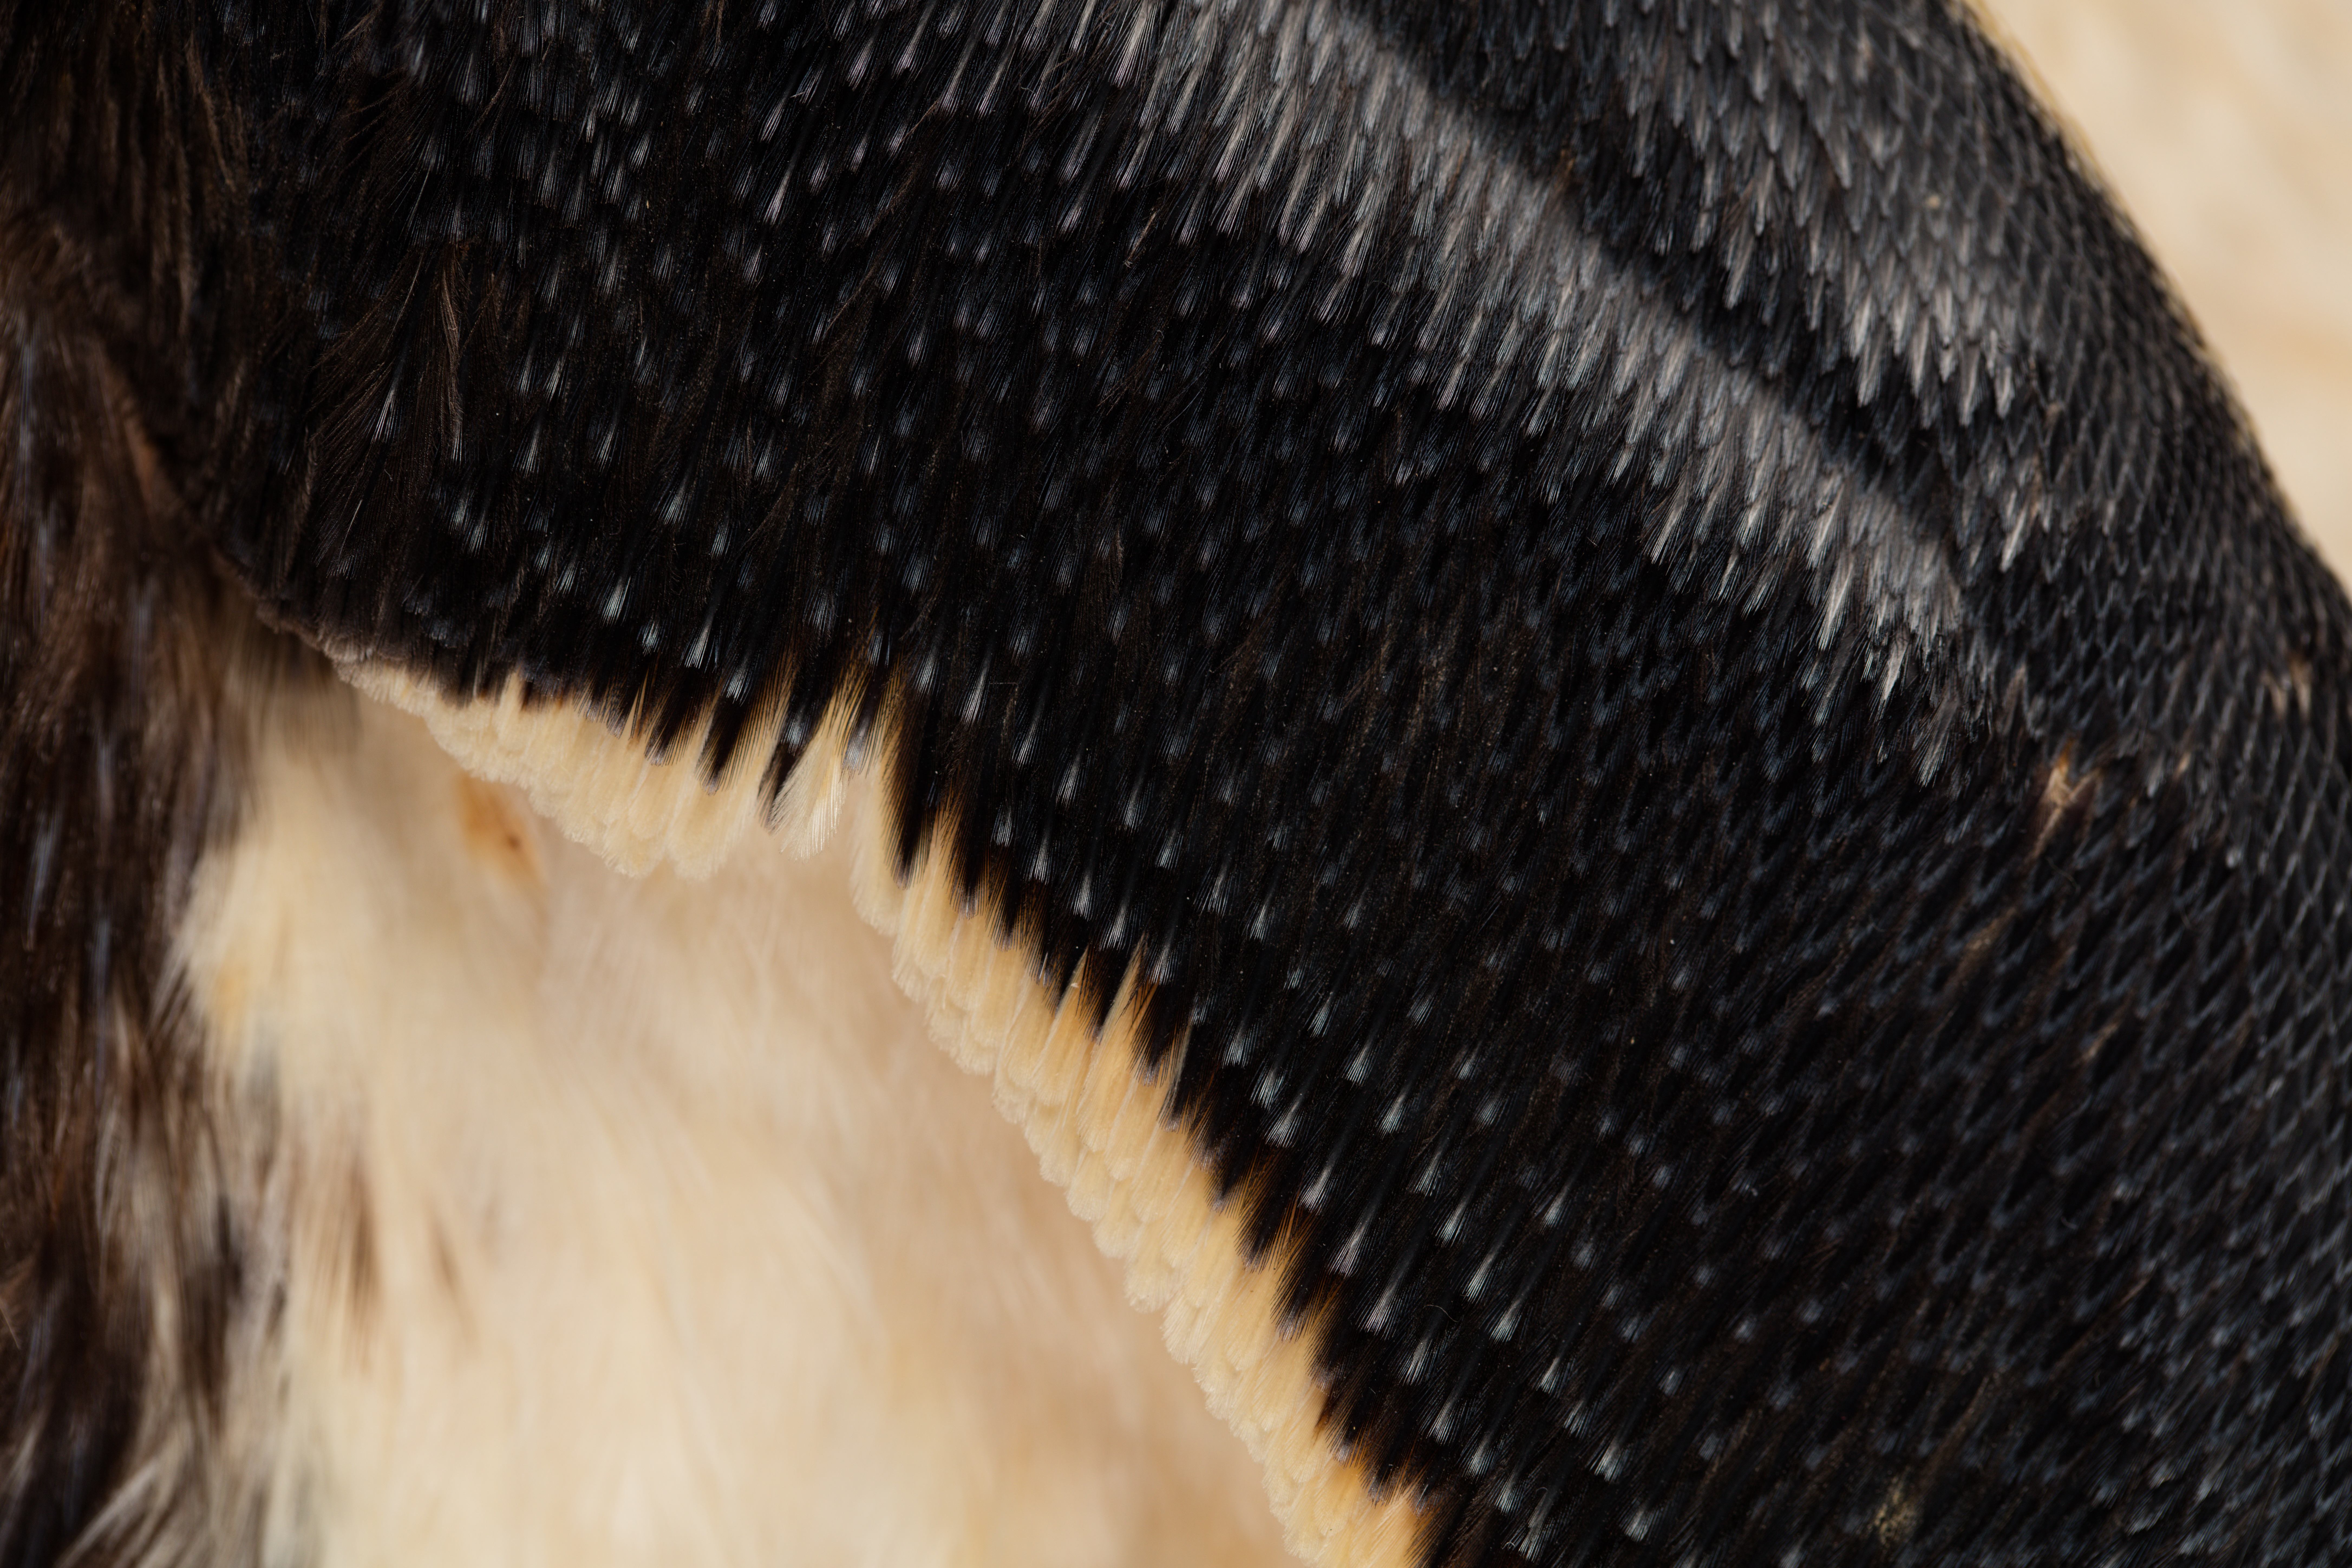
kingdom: Animalia
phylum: Chordata
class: Aves
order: Sphenisciformes
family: Spheniscidae
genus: Eudyptes
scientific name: Eudyptes sclateri
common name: Erect-crested penguin
